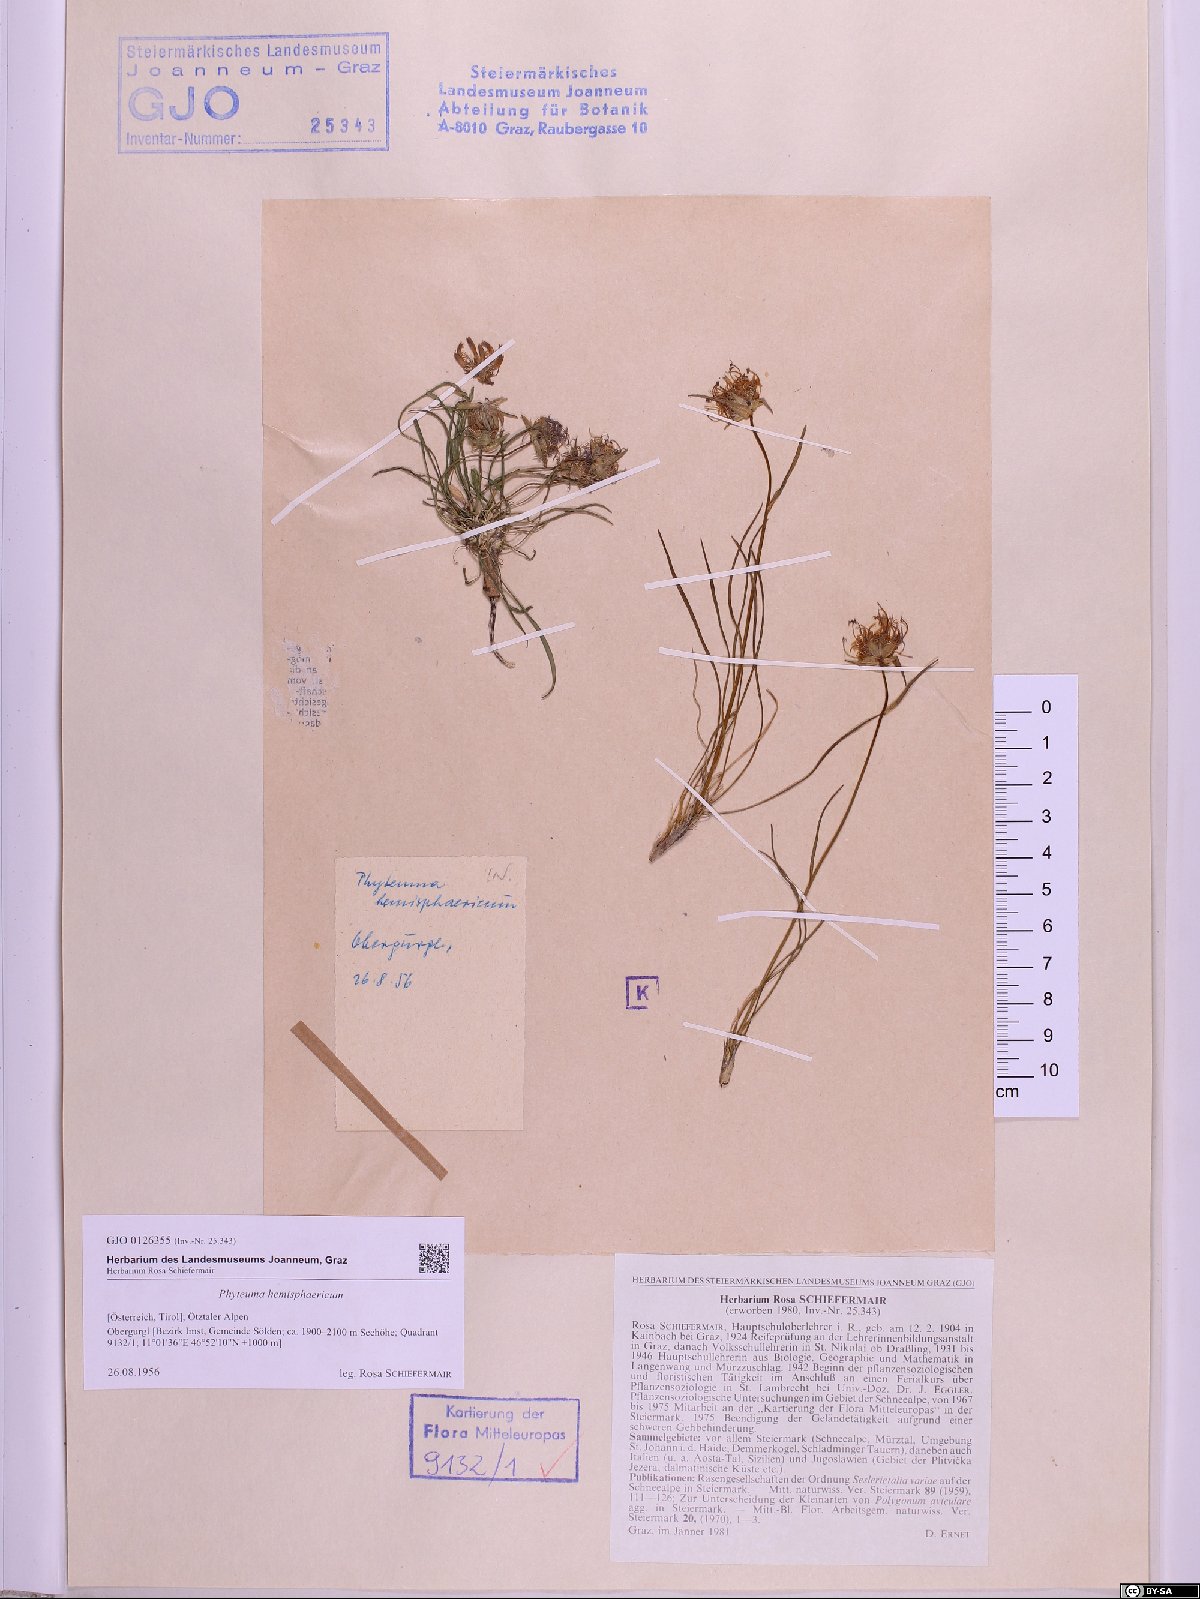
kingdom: Plantae
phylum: Tracheophyta
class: Magnoliopsida
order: Asterales
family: Campanulaceae
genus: Phyteuma
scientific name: Phyteuma hemisphaericum
